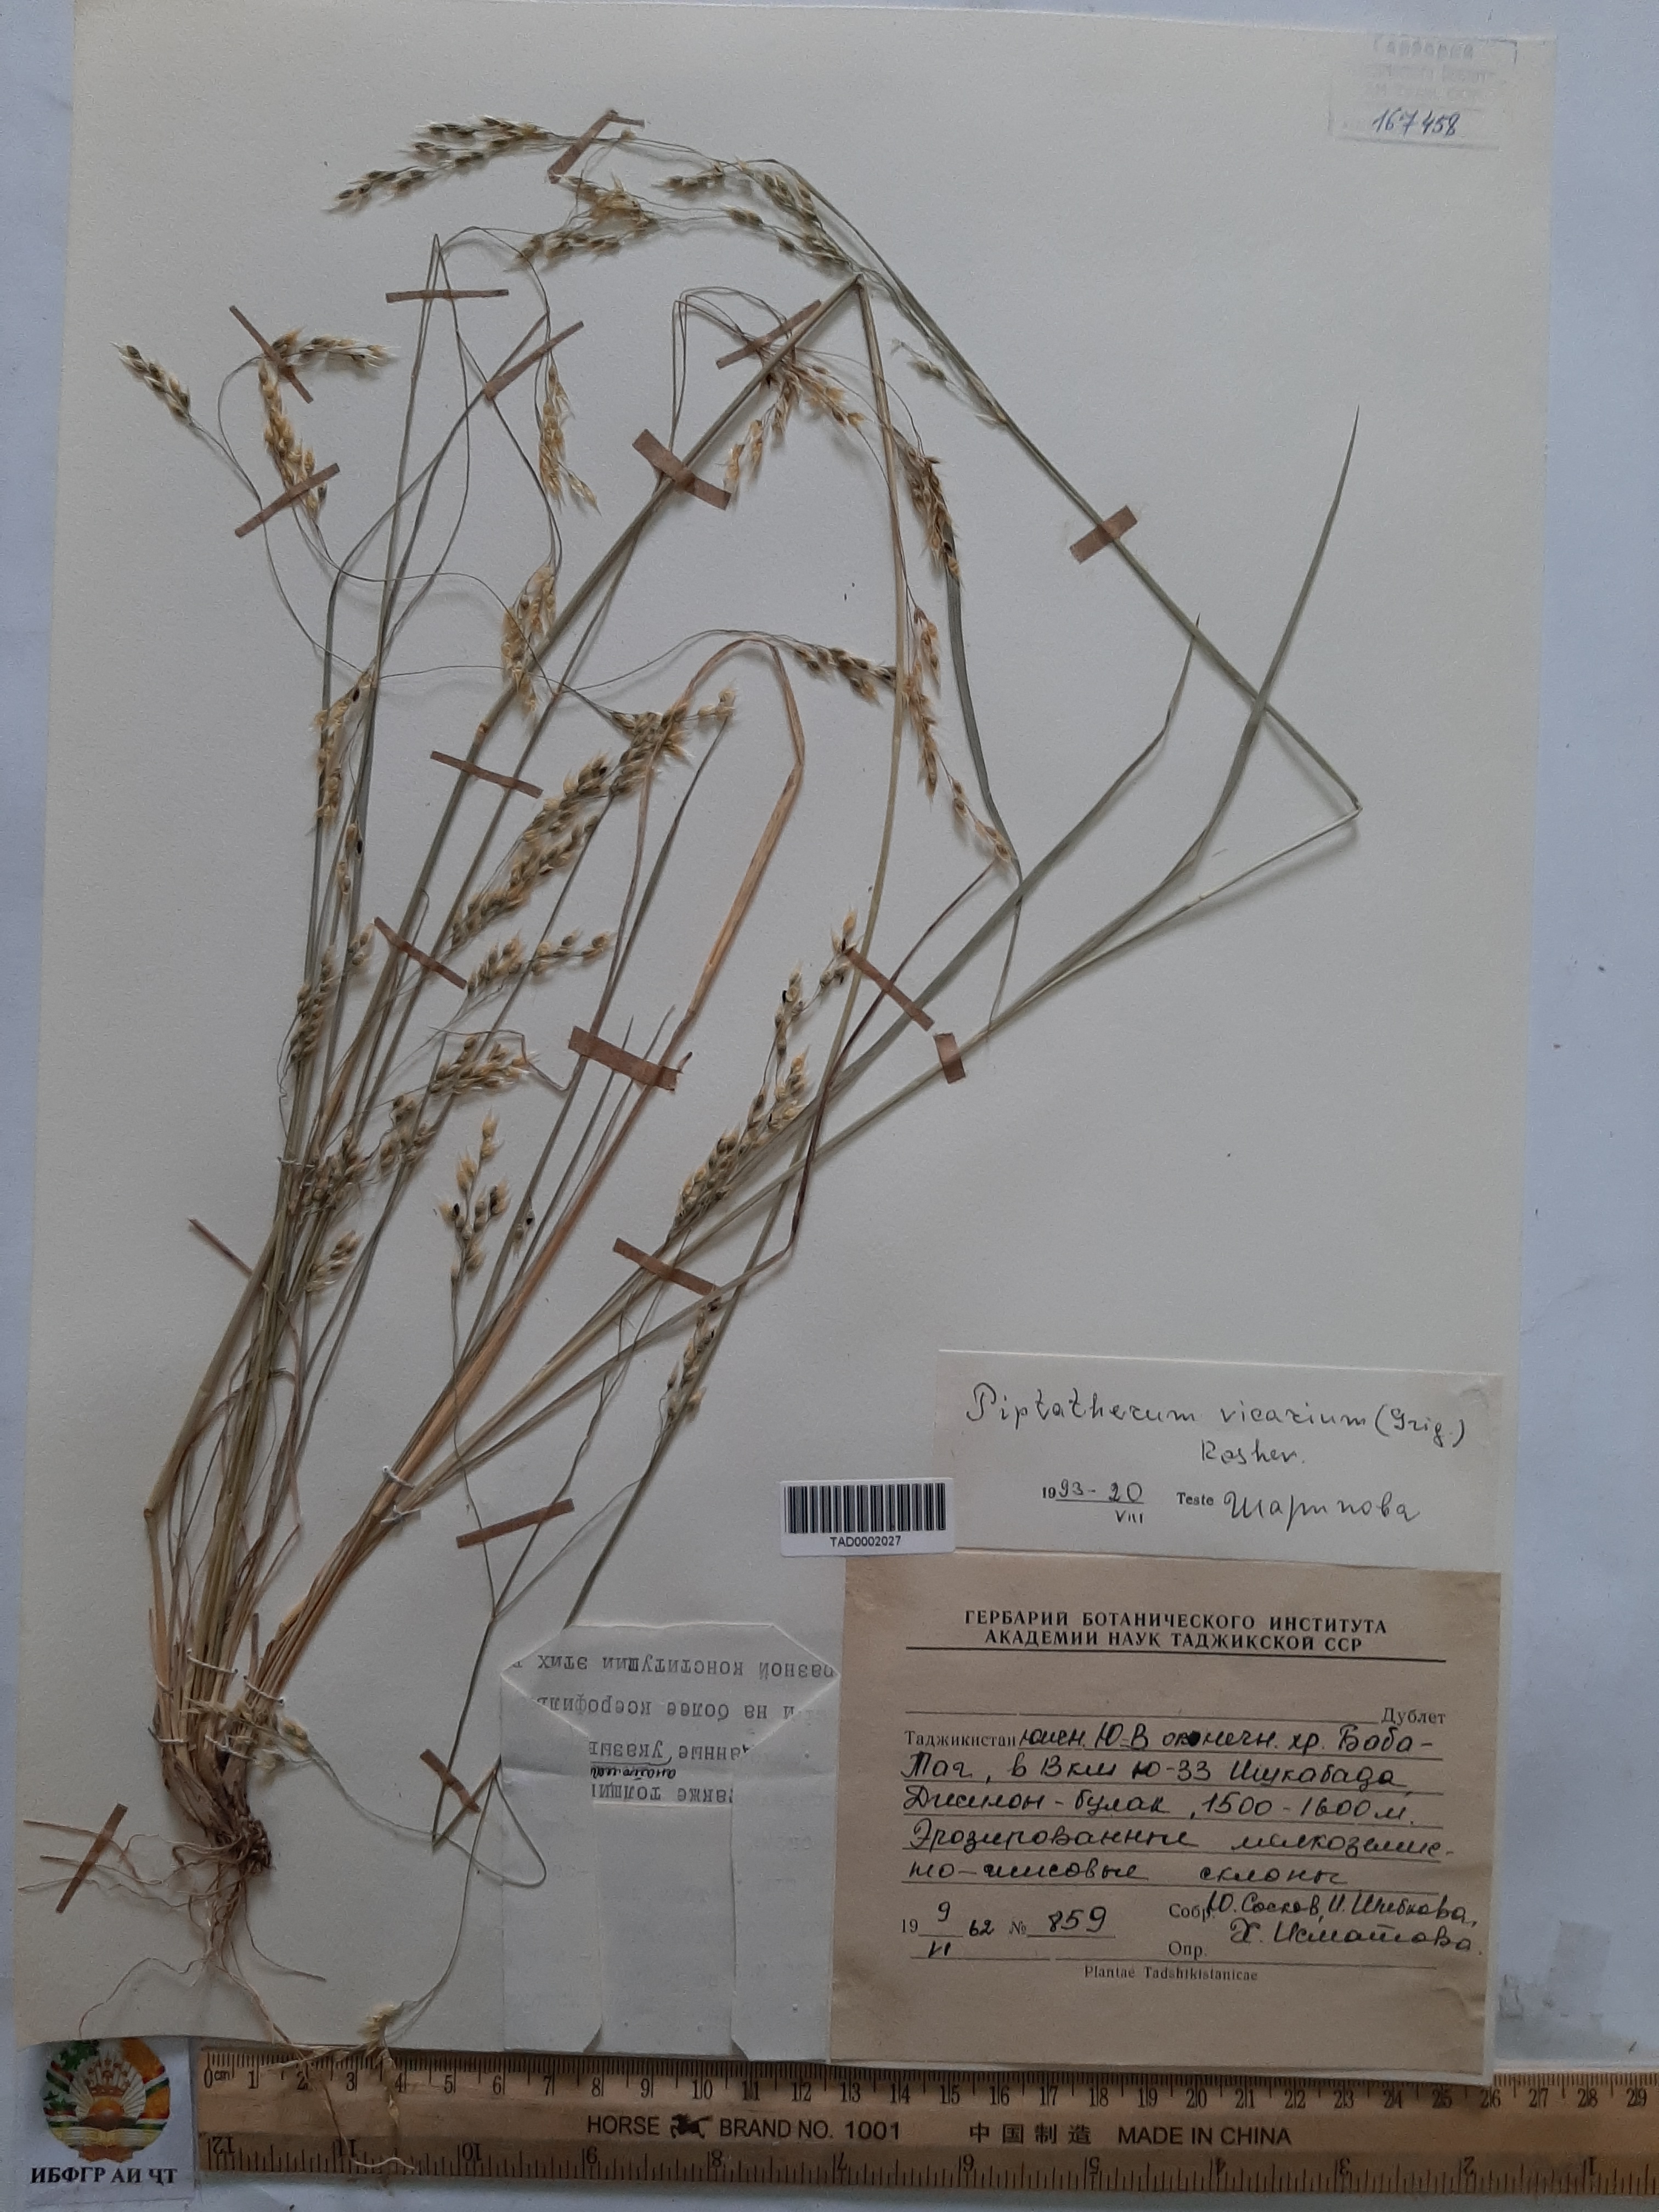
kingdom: Plantae
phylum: Tracheophyta
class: Liliopsida
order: Poales
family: Poaceae
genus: Piptatherum
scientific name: Piptatherum microcarpum
